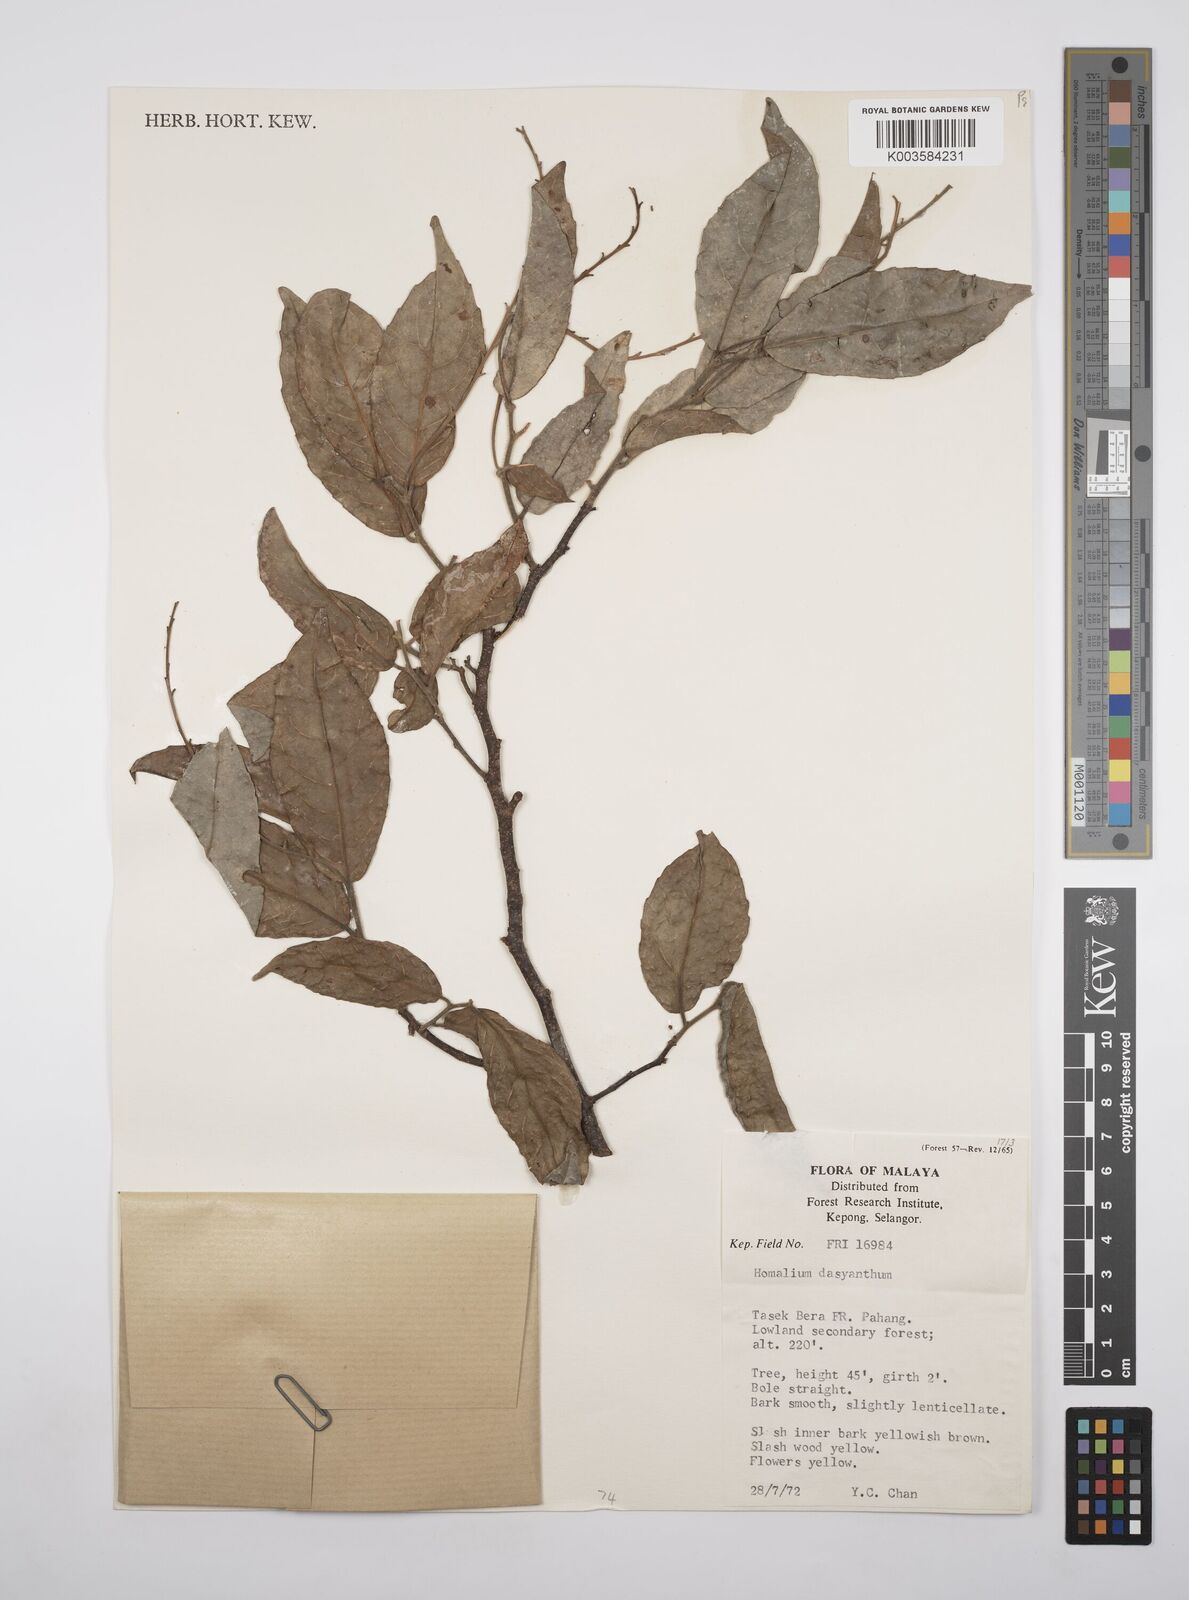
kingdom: Plantae
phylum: Tracheophyta
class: Magnoliopsida
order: Malpighiales
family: Salicaceae
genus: Homalium
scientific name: Homalium dasyanthum
